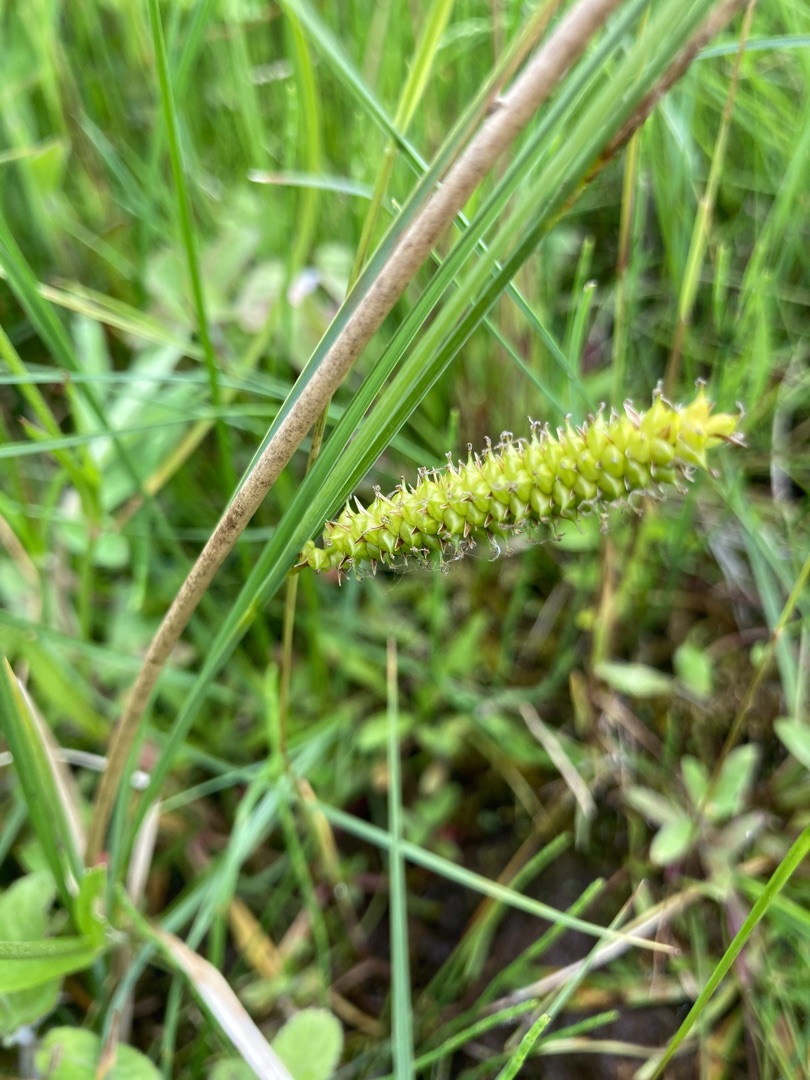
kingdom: Plantae
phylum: Tracheophyta
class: Liliopsida
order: Poales
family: Cyperaceae
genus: Carex
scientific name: Carex rostrata
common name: Næb-star
